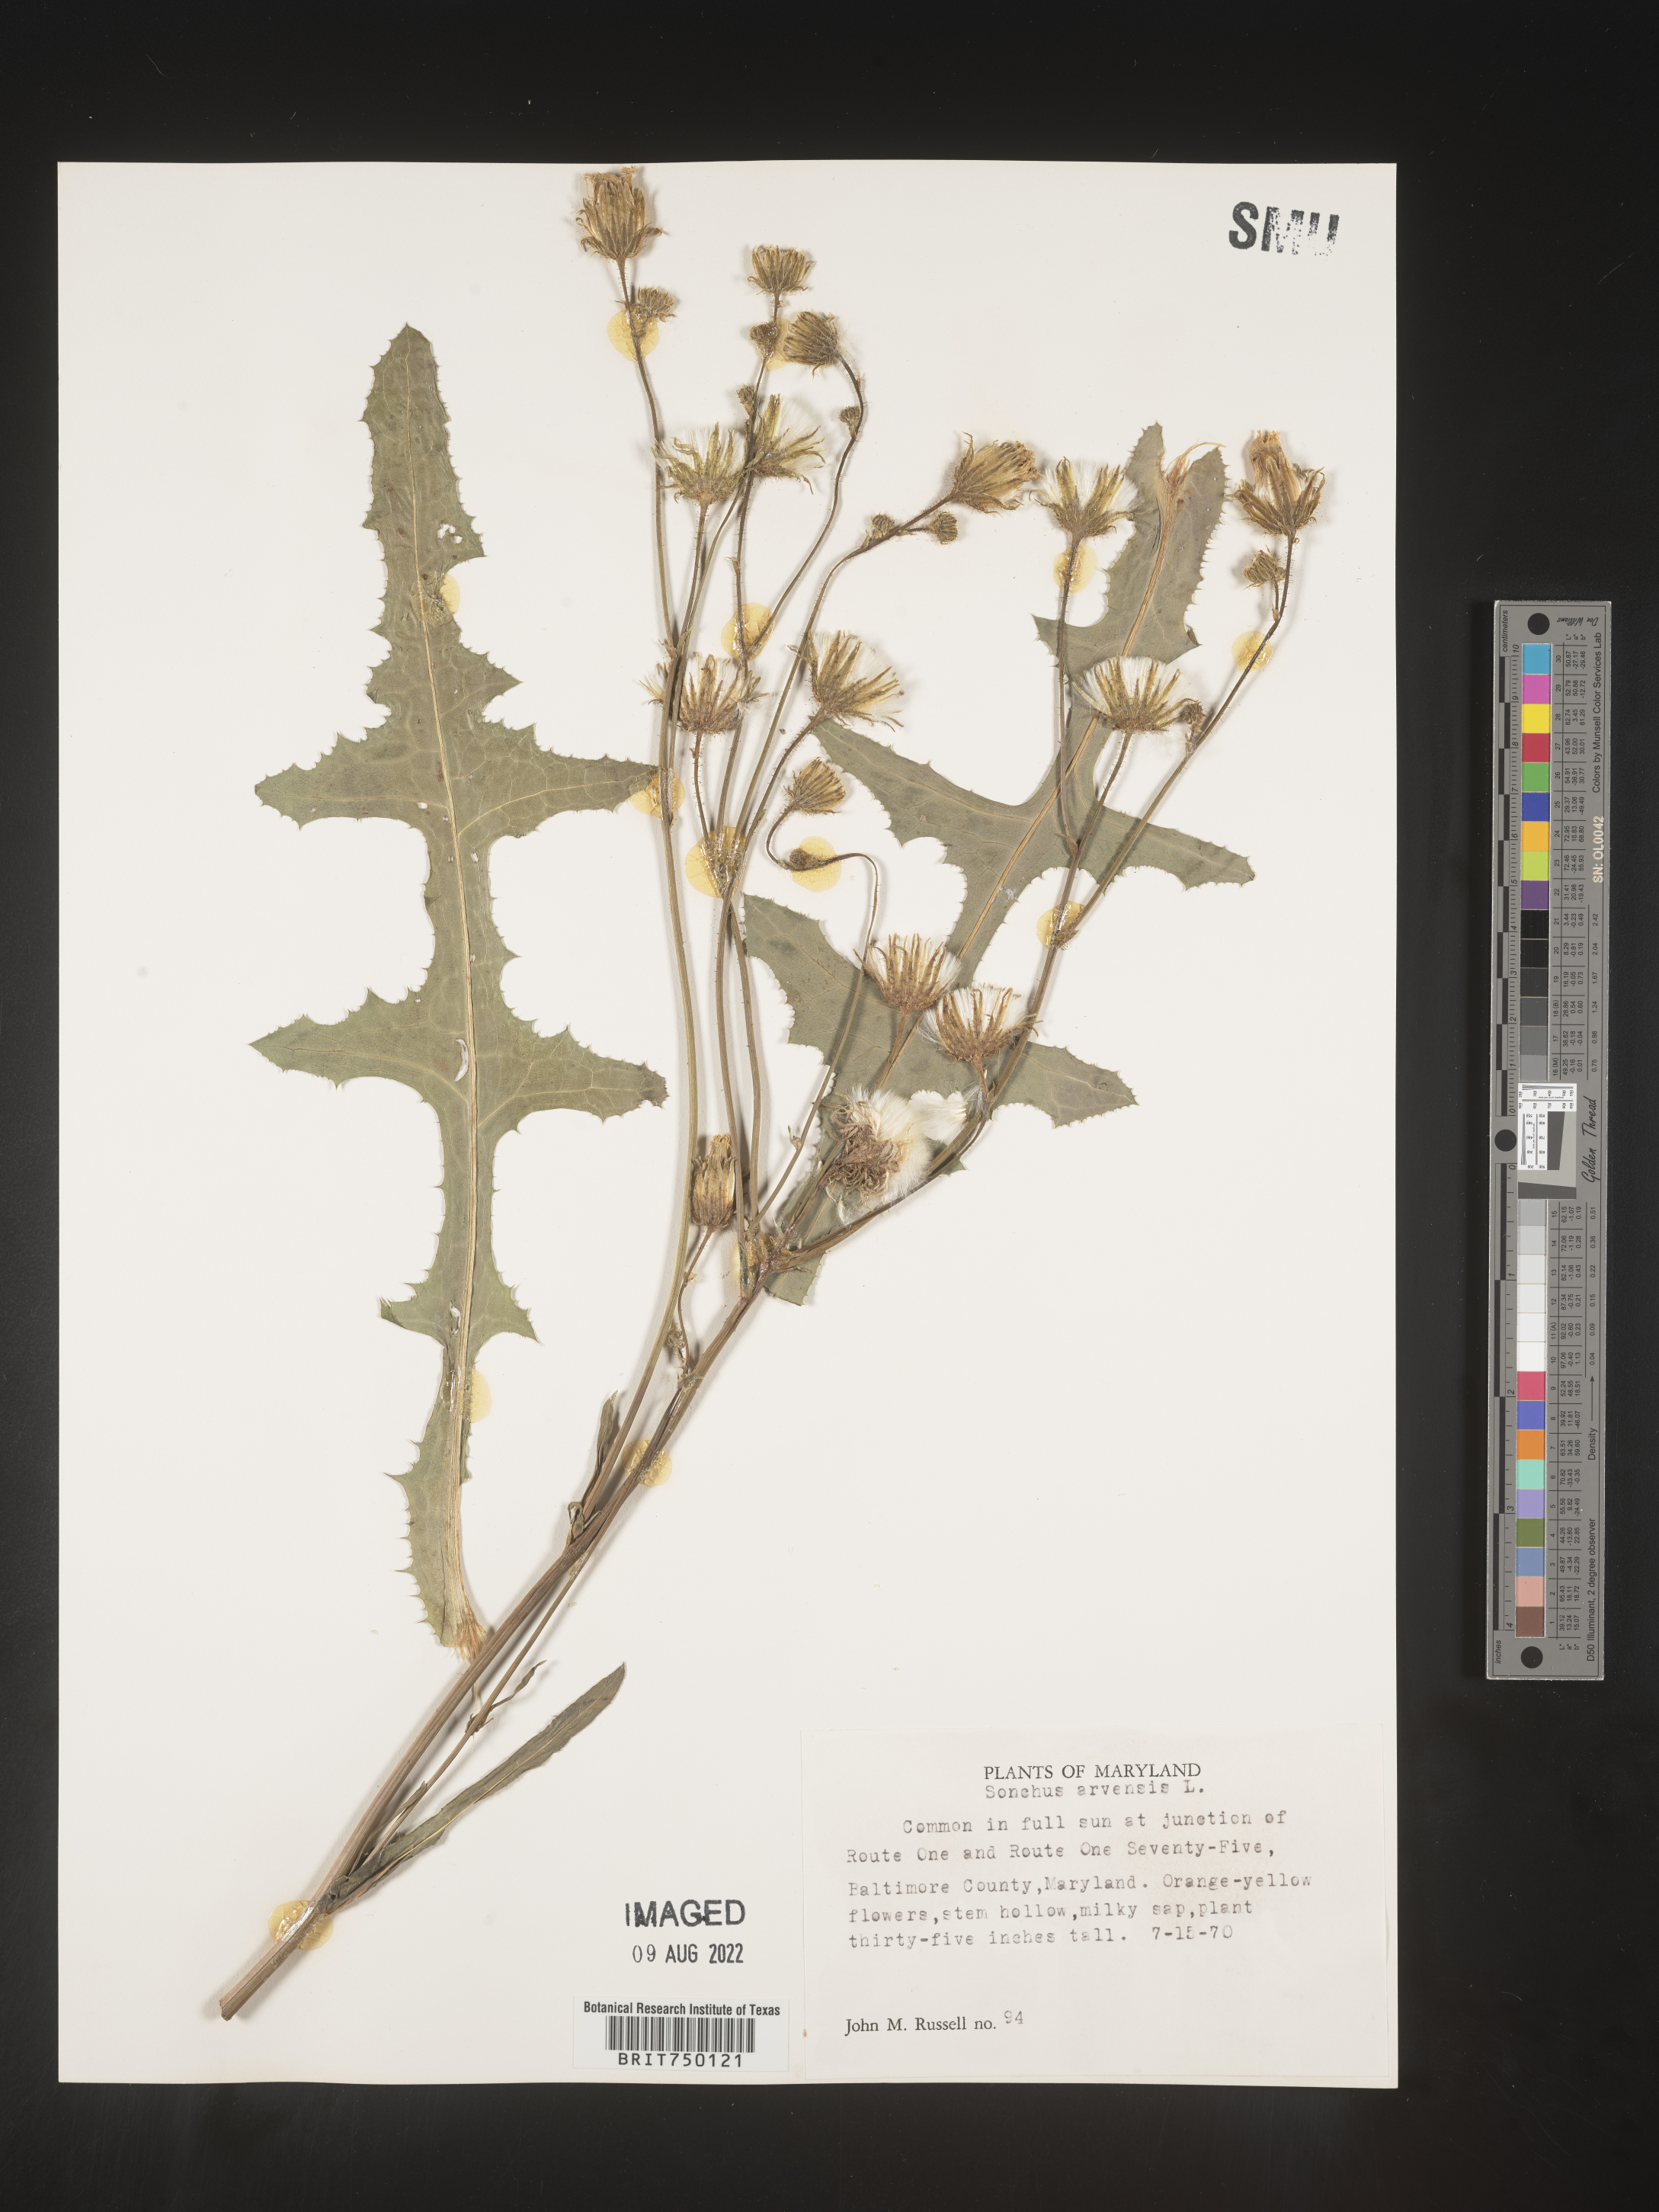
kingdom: Plantae
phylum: Tracheophyta
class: Magnoliopsida
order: Asterales
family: Asteraceae
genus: Sonchus
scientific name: Sonchus arvensis
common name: Perennial sow-thistle
